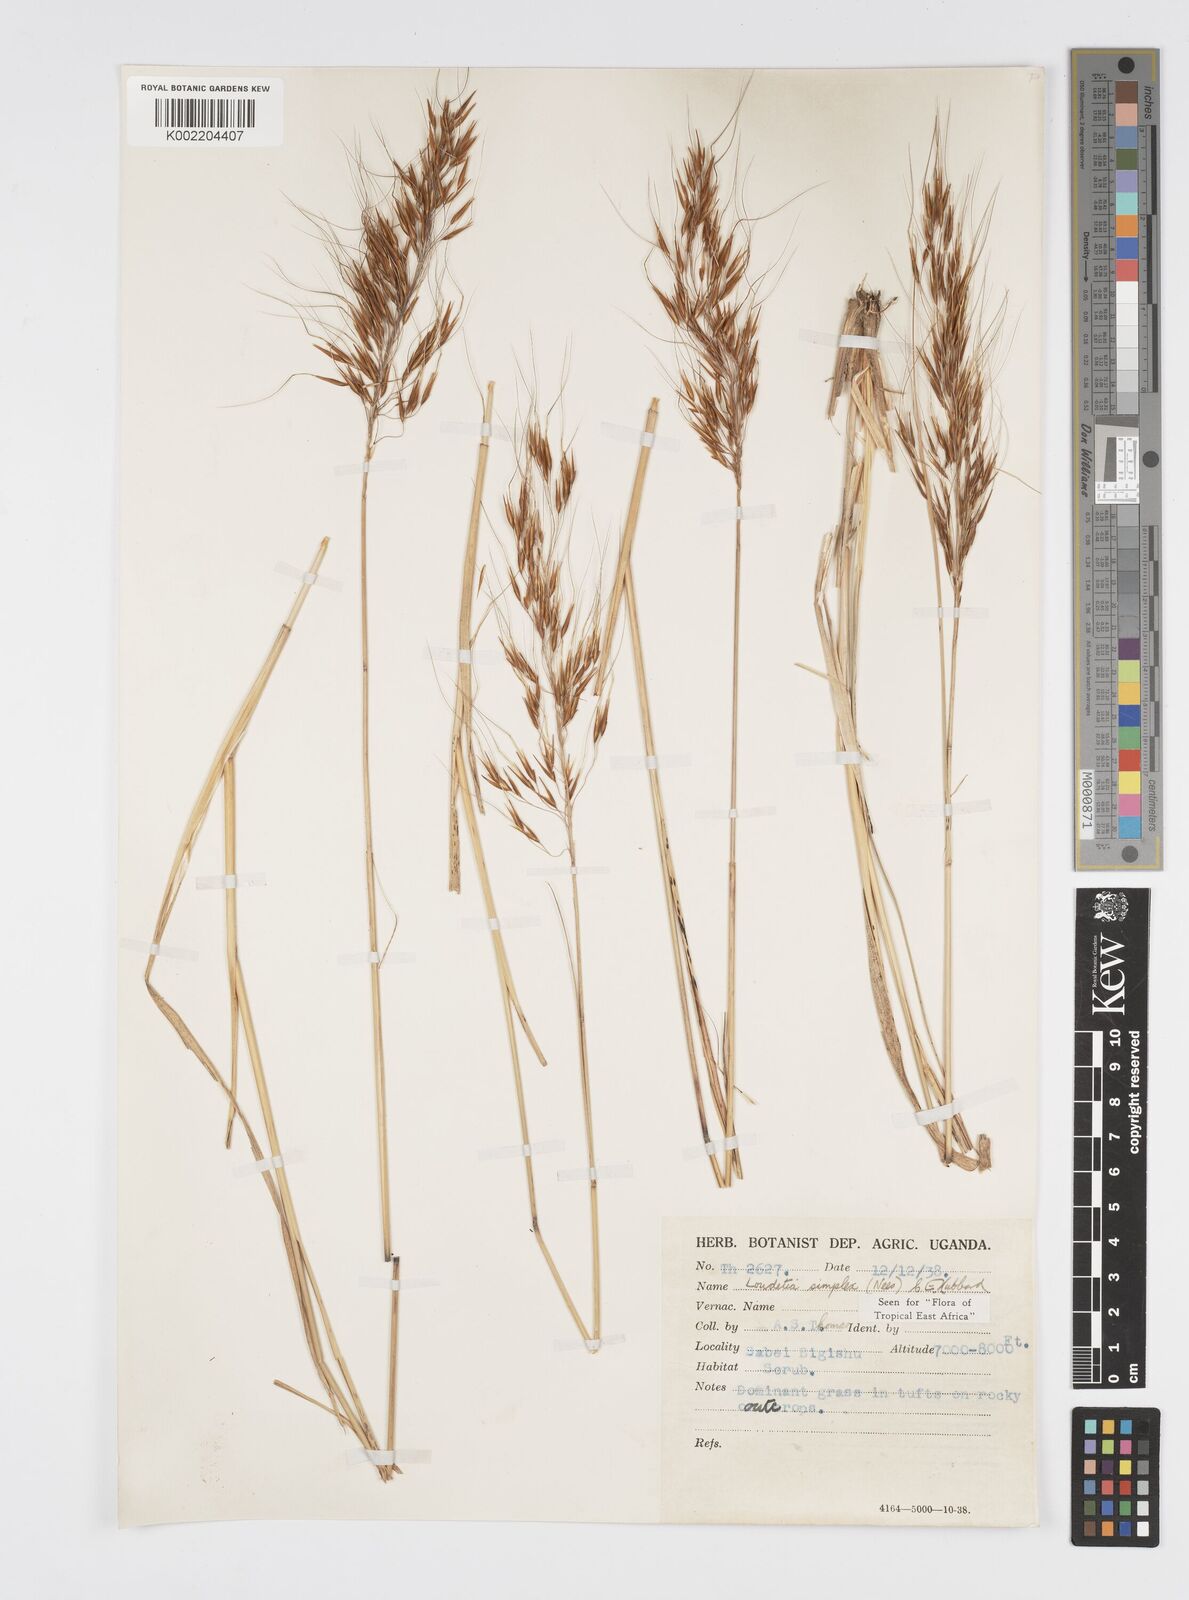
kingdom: Plantae
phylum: Tracheophyta
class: Liliopsida
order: Poales
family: Poaceae
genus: Loudetia
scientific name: Loudetia simplex
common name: Common russet grass
